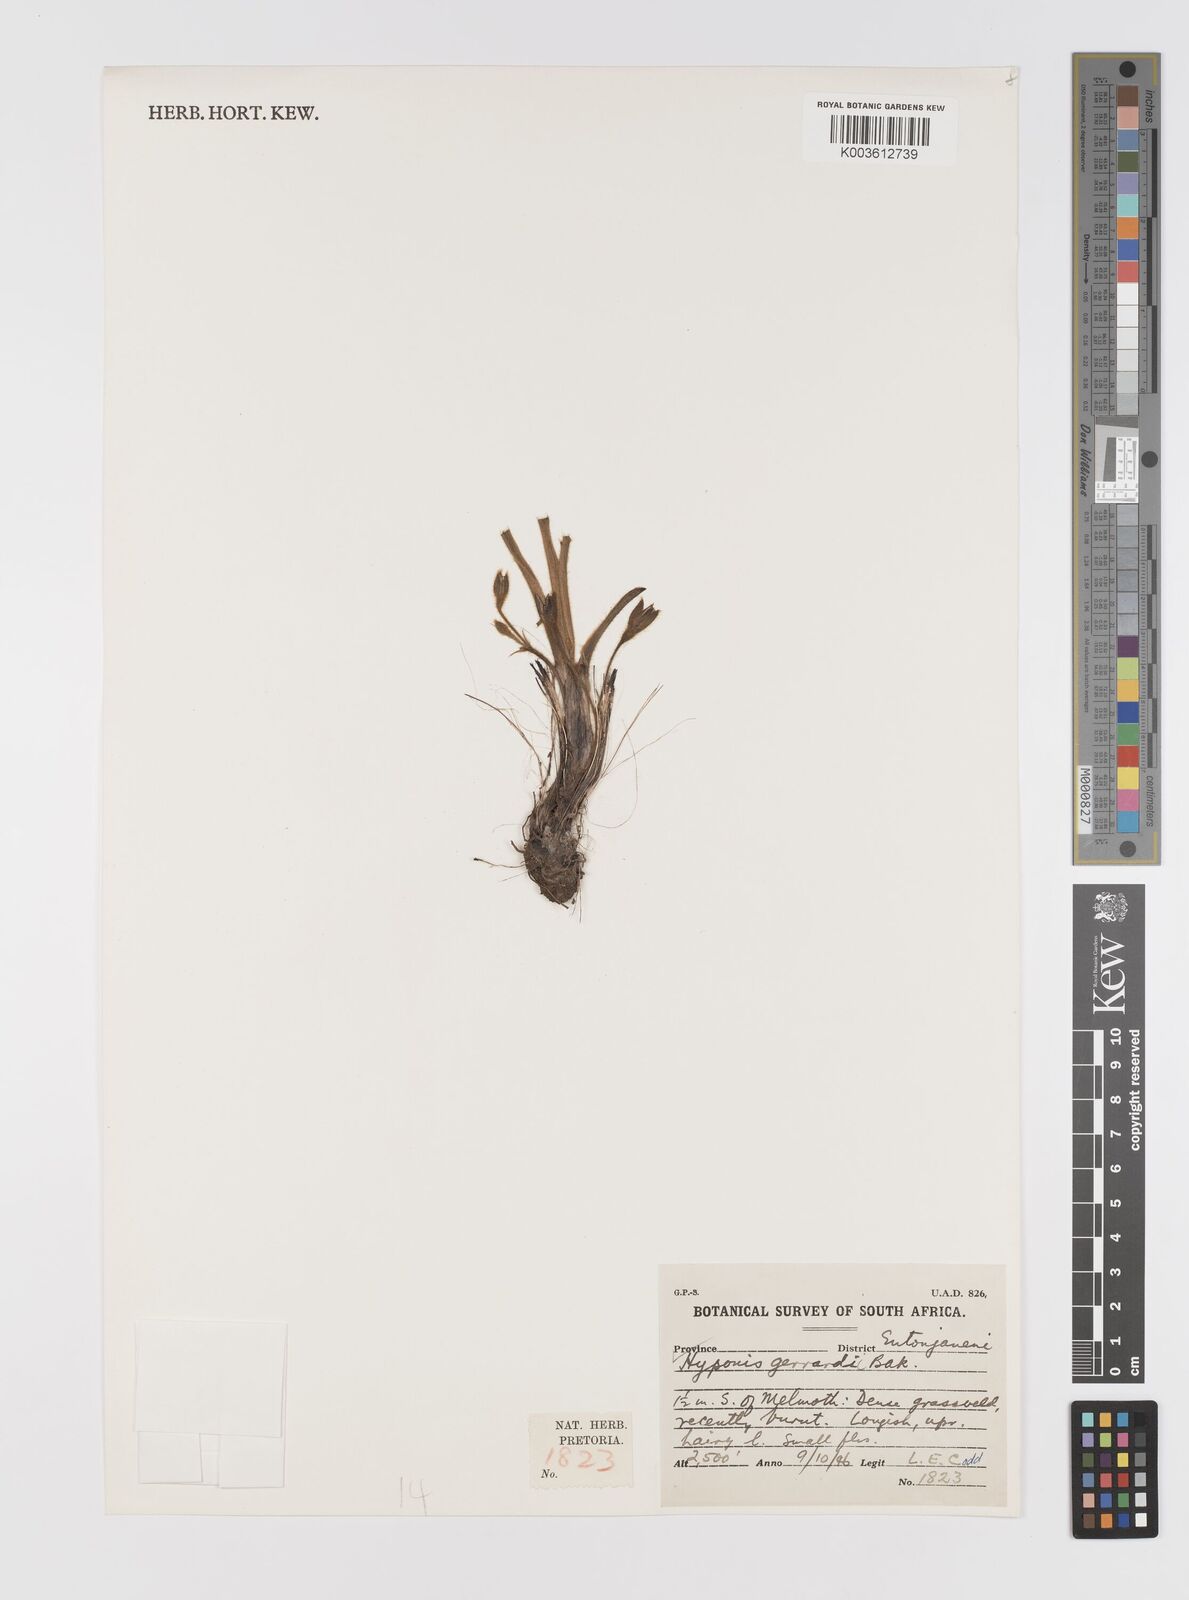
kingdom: Plantae
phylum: Tracheophyta
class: Liliopsida
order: Asparagales
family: Hypoxidaceae
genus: Hypoxis
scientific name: Hypoxis gerrardii
